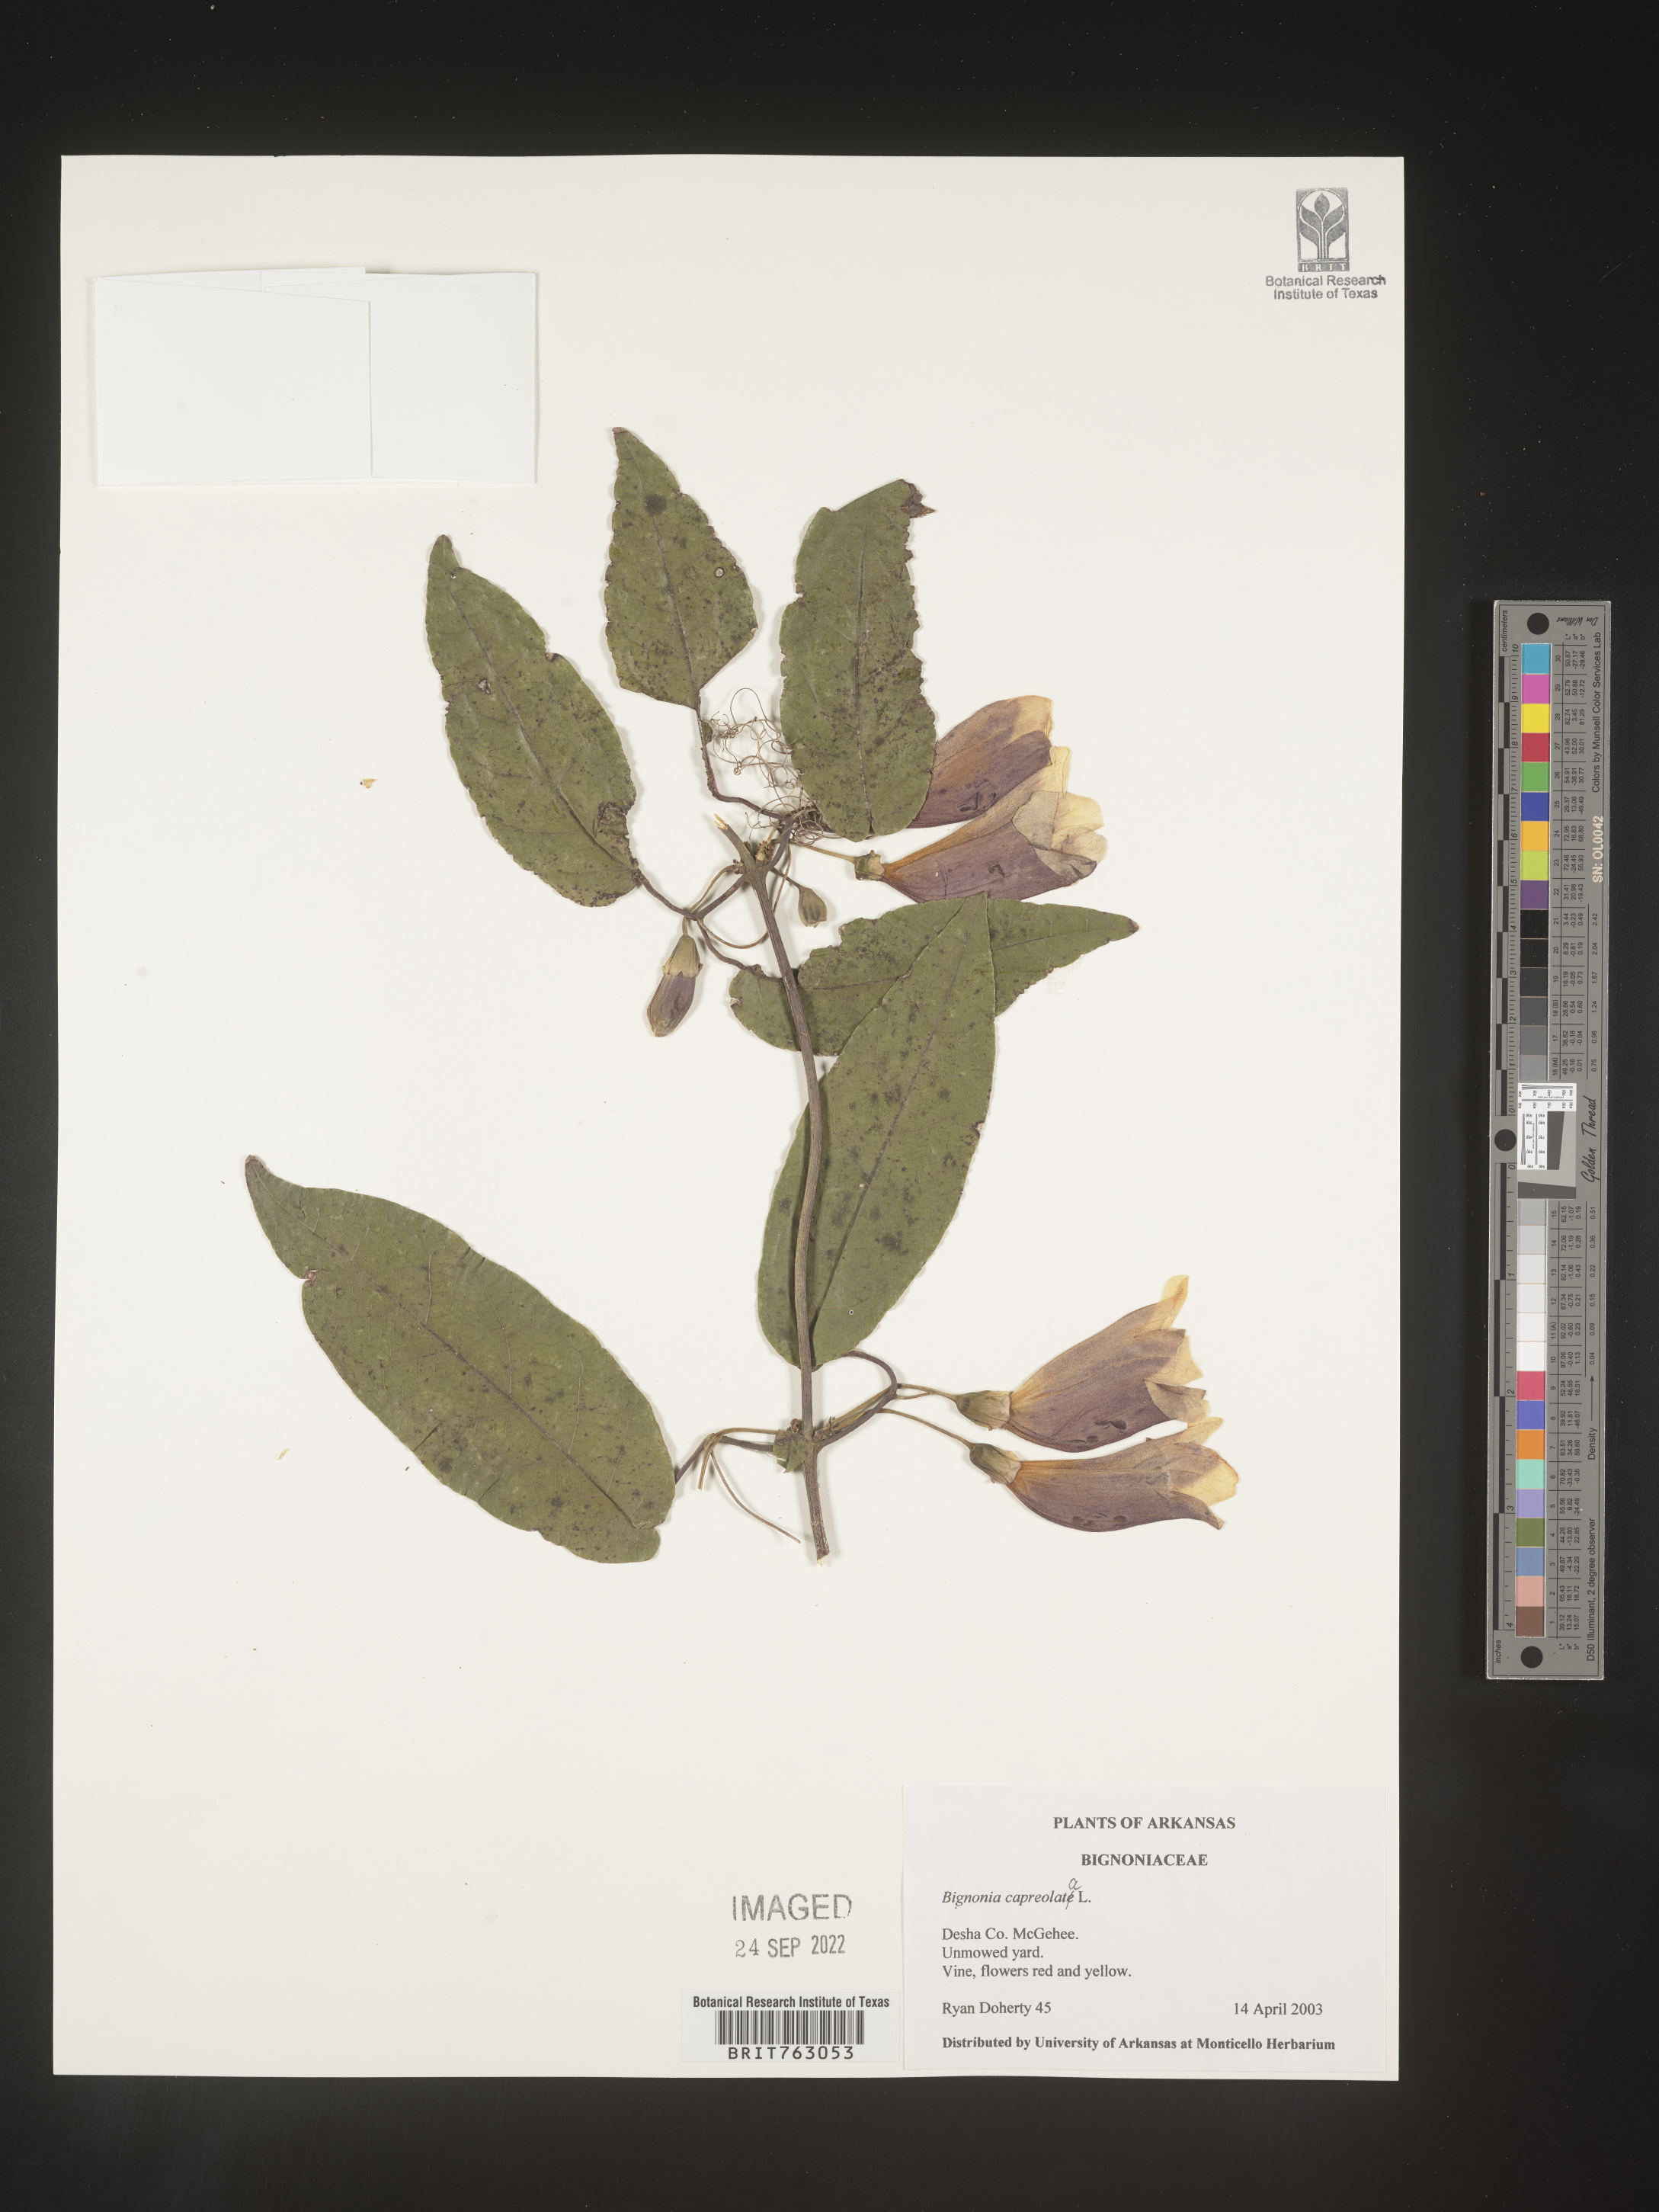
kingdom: Plantae
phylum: Tracheophyta
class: Magnoliopsida
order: Lamiales
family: Bignoniaceae
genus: Bignonia
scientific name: Bignonia capreolata
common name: Crossvine
